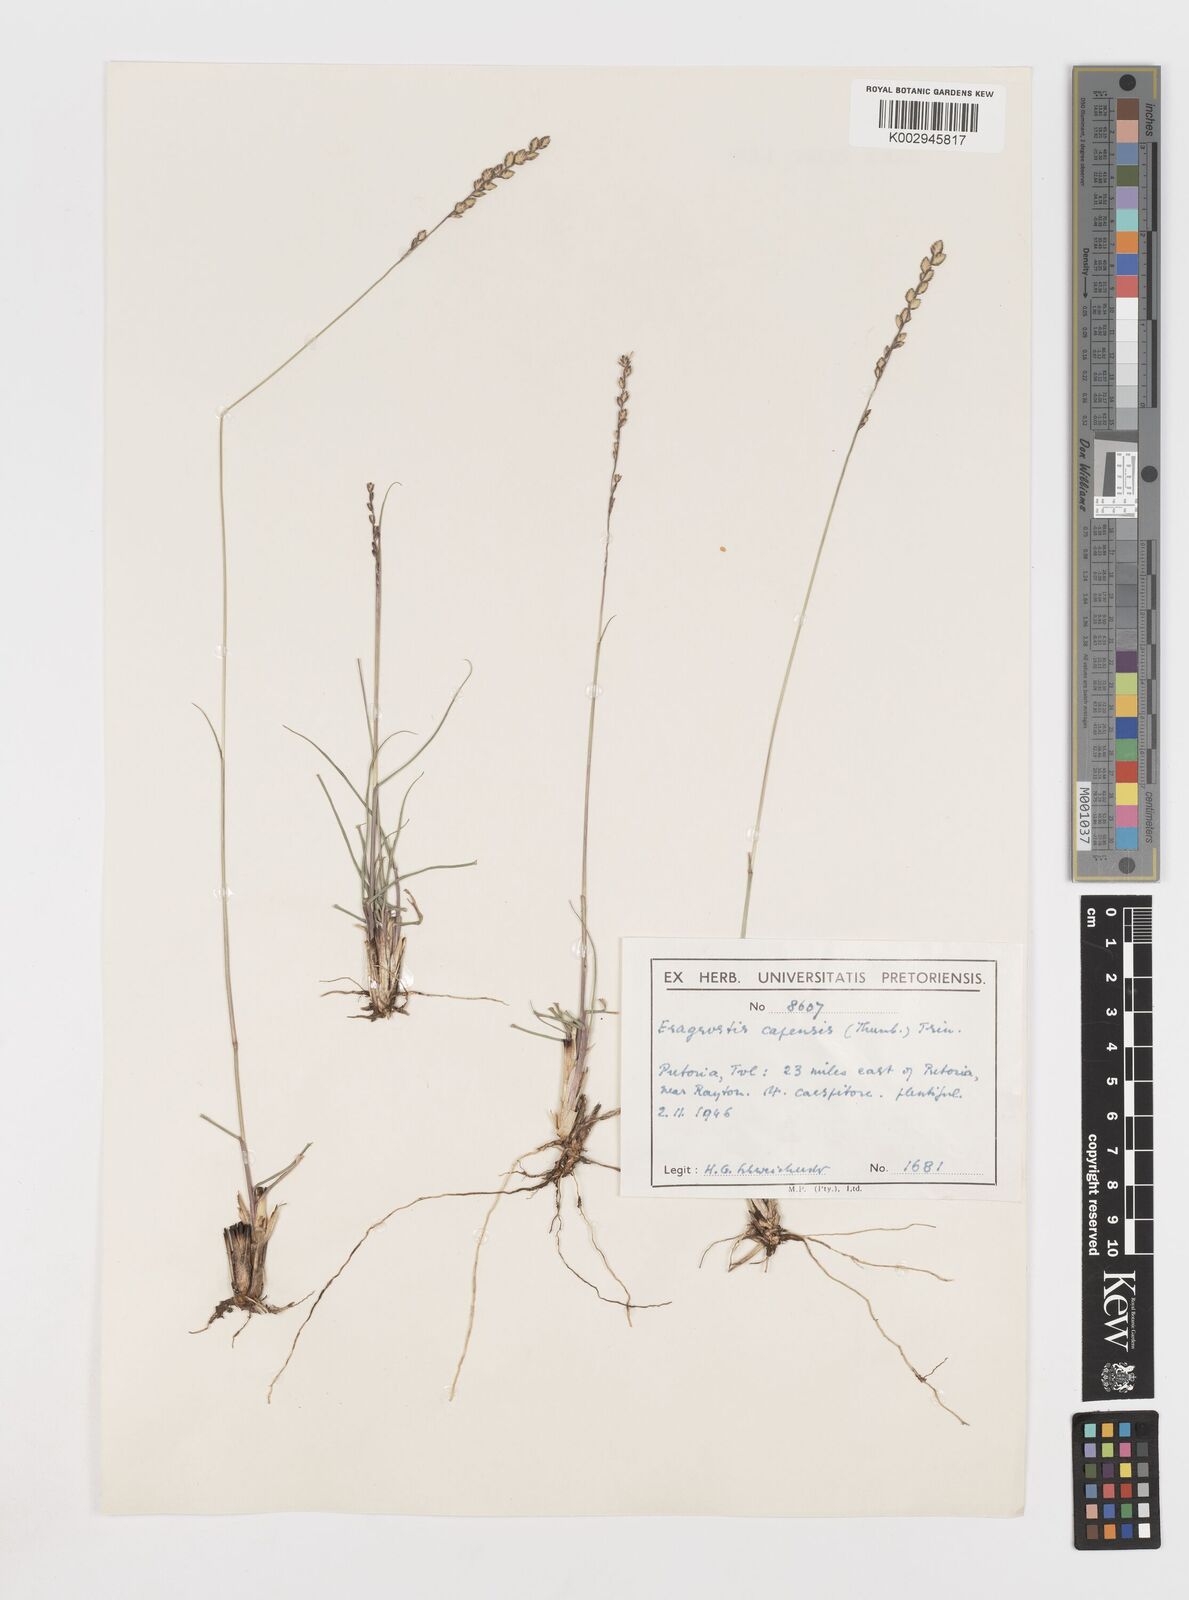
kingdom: Plantae
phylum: Tracheophyta
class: Liliopsida
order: Poales
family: Poaceae
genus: Eragrostis
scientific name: Eragrostis capensis
